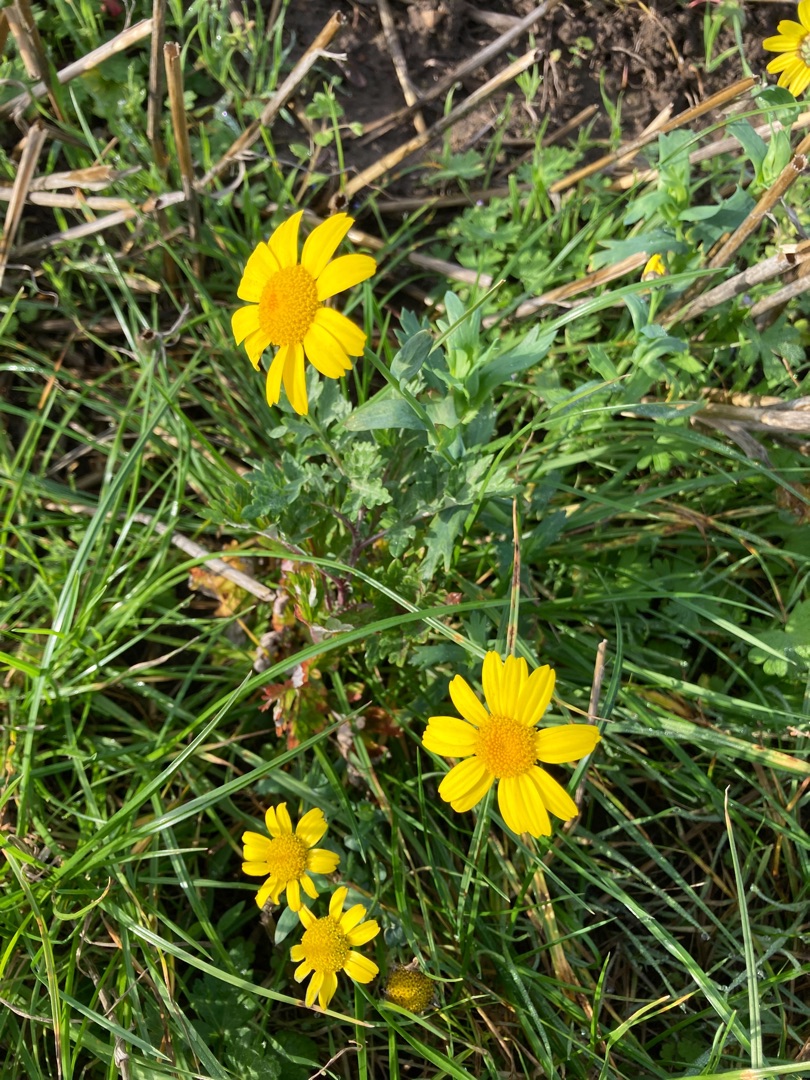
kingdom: Plantae
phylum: Tracheophyta
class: Magnoliopsida
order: Asterales
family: Asteraceae
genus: Glebionis
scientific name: Glebionis segetum
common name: Gul okseøje
